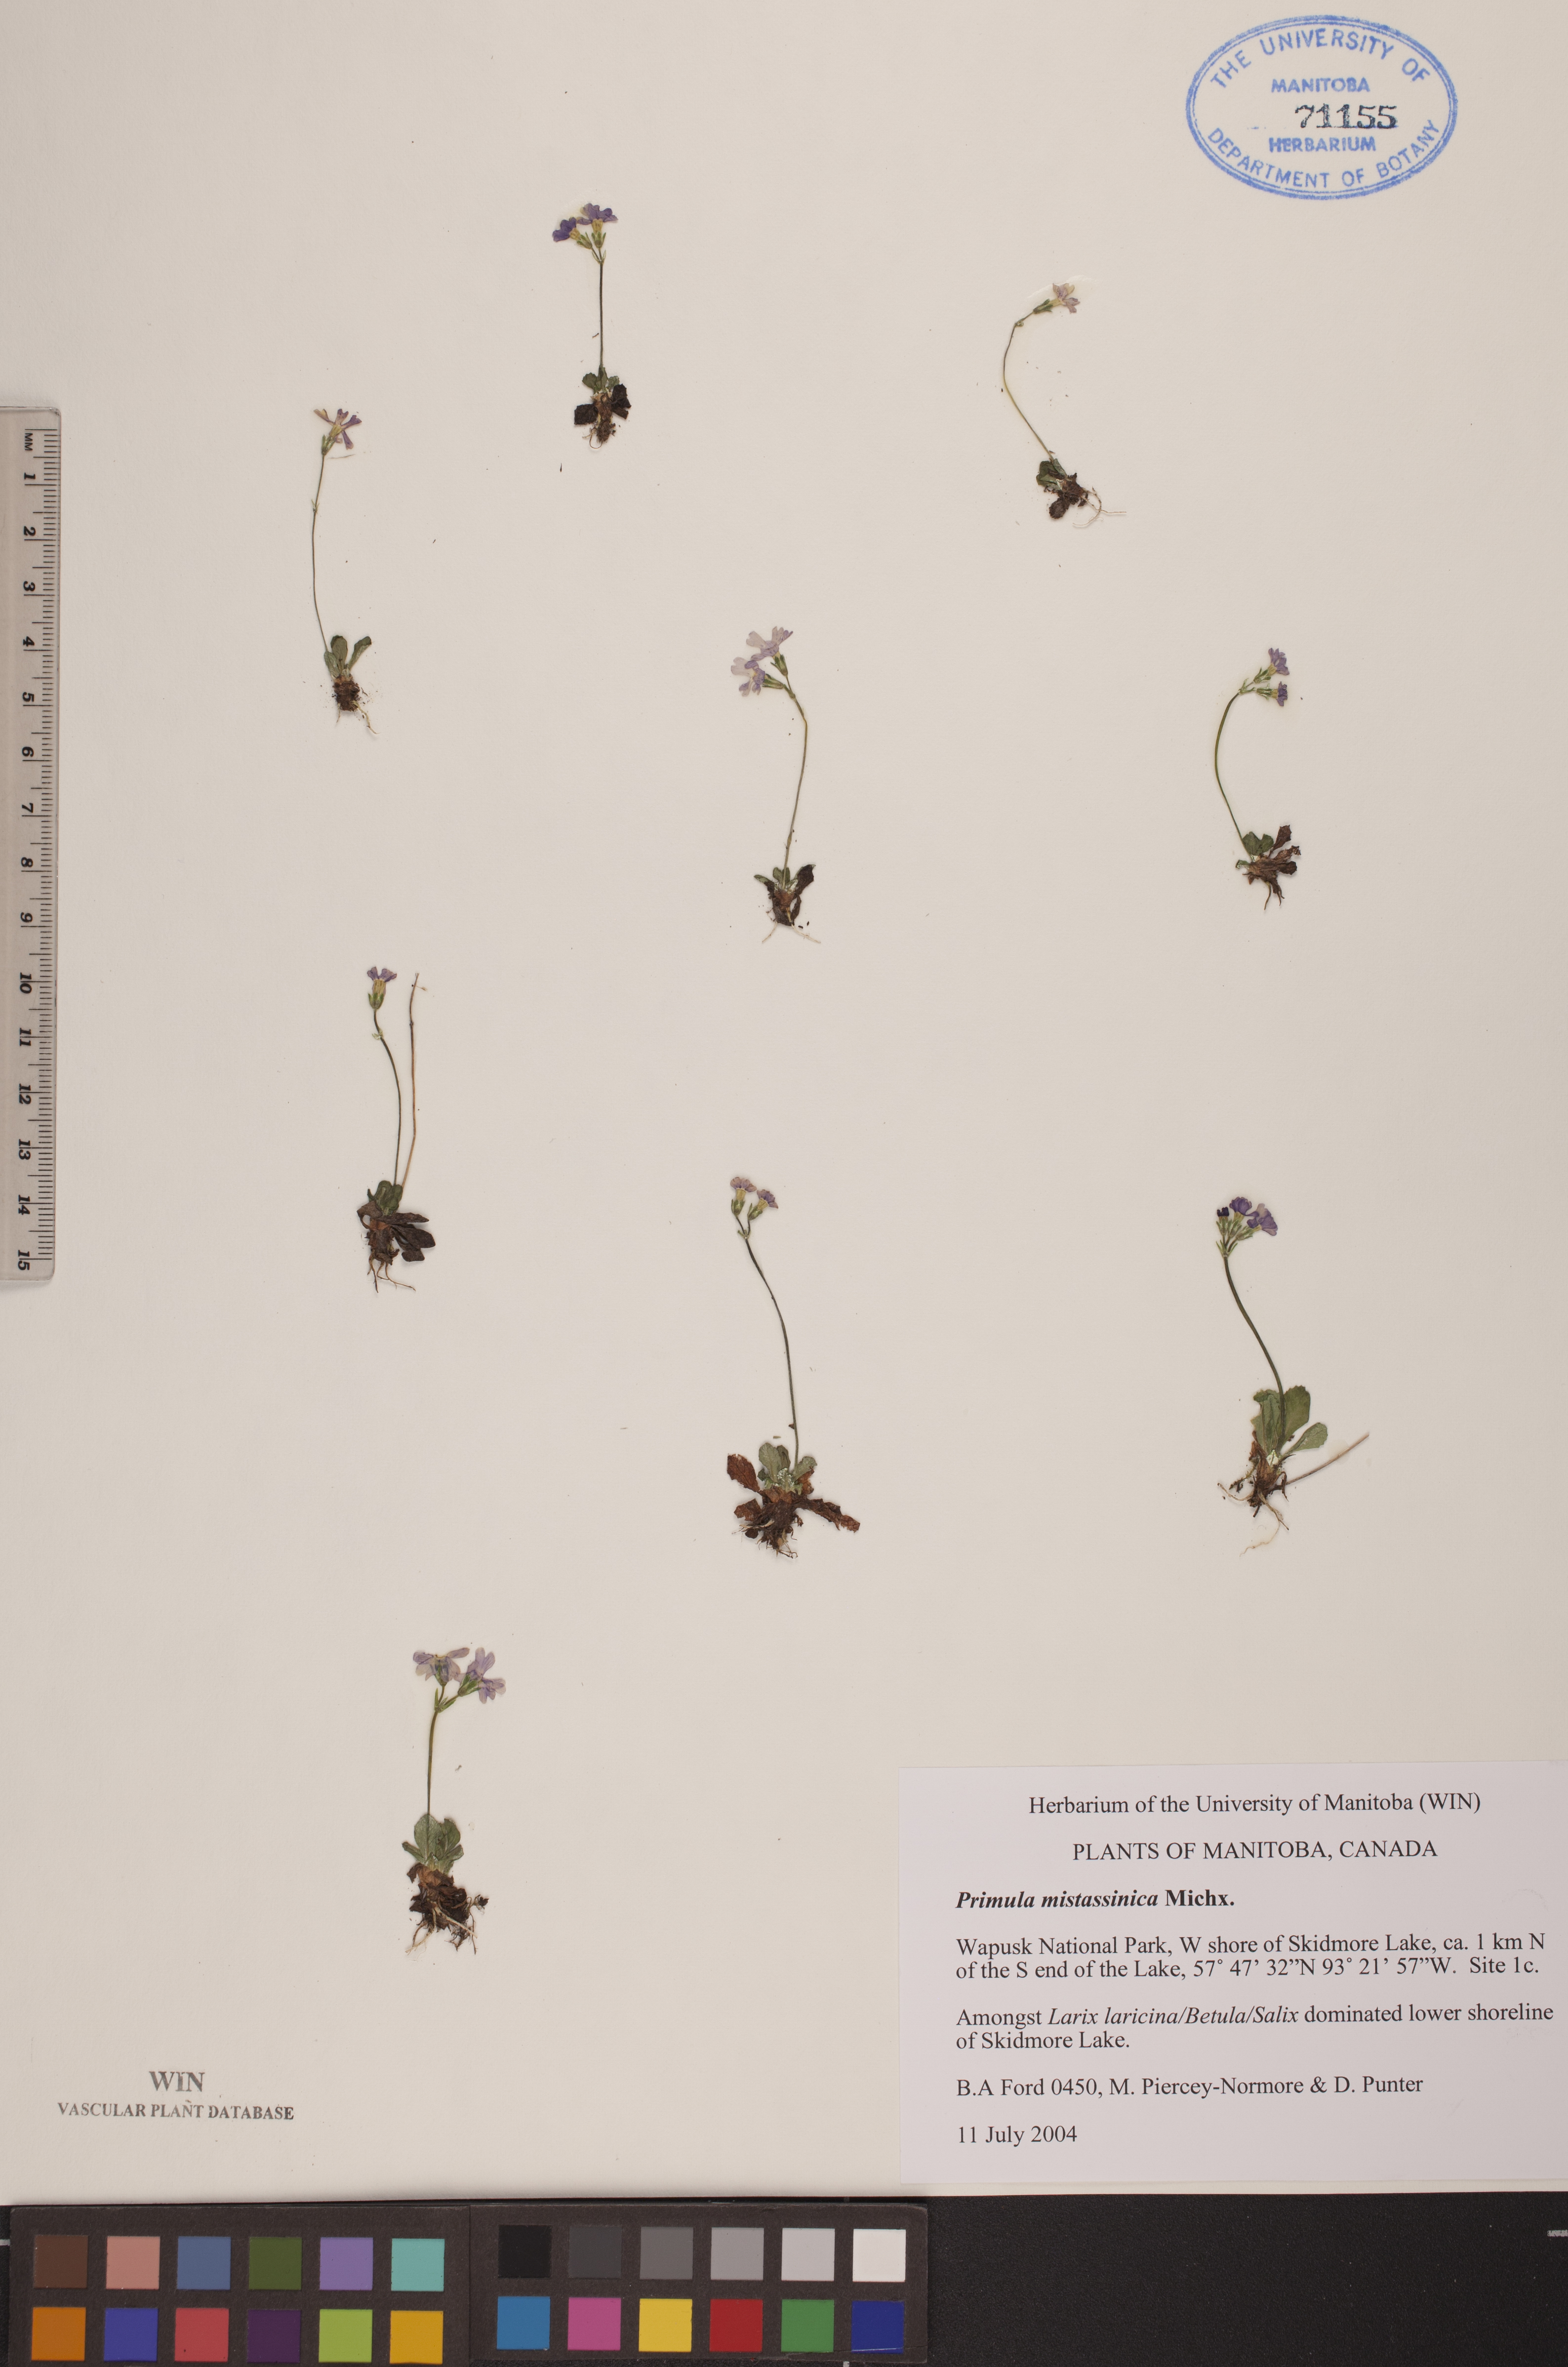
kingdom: Plantae
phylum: Tracheophyta
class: Magnoliopsida
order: Ericales
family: Primulaceae
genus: Primula
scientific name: Primula mistassinica
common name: Bird's-eye primrose
